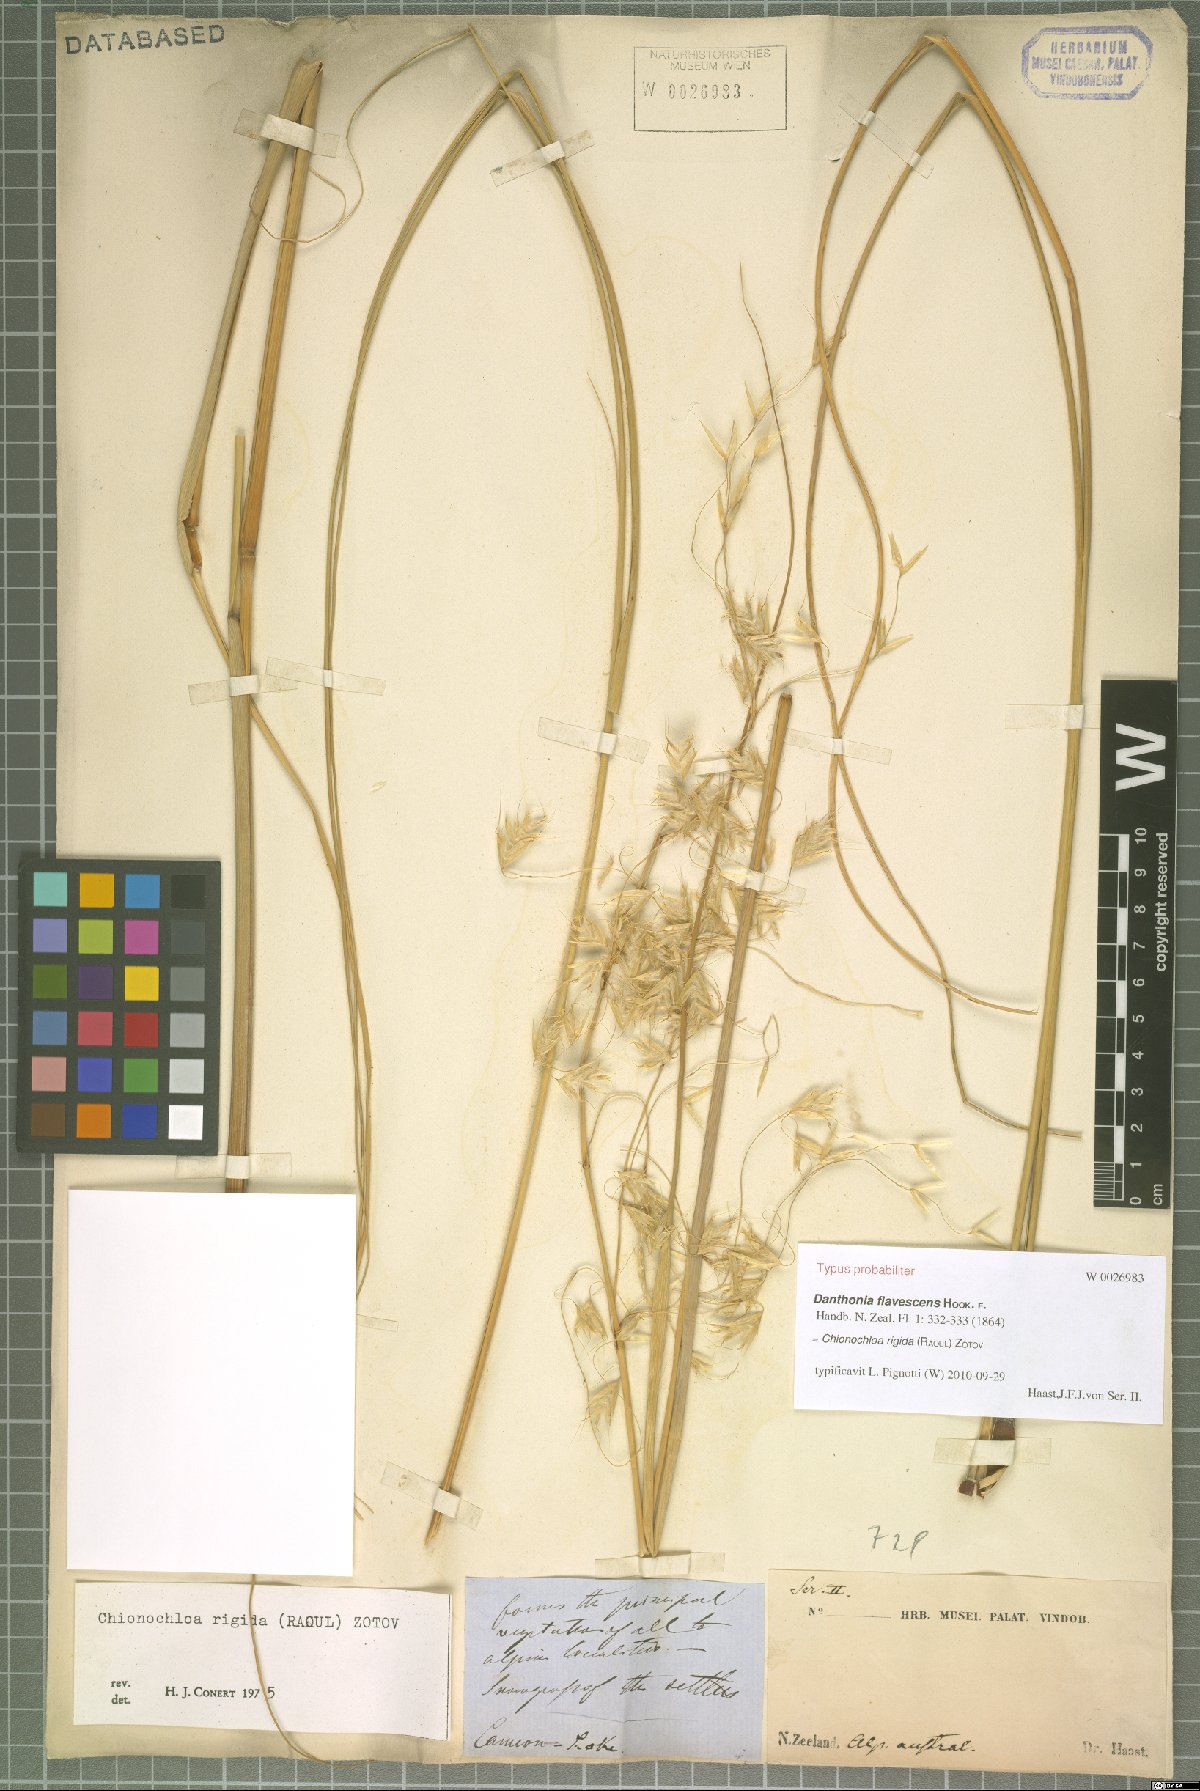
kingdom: Plantae
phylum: Tracheophyta
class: Liliopsida
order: Poales
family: Poaceae
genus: Chionochloa
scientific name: Chionochloa rigida
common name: Narrow leaved snow tussock
